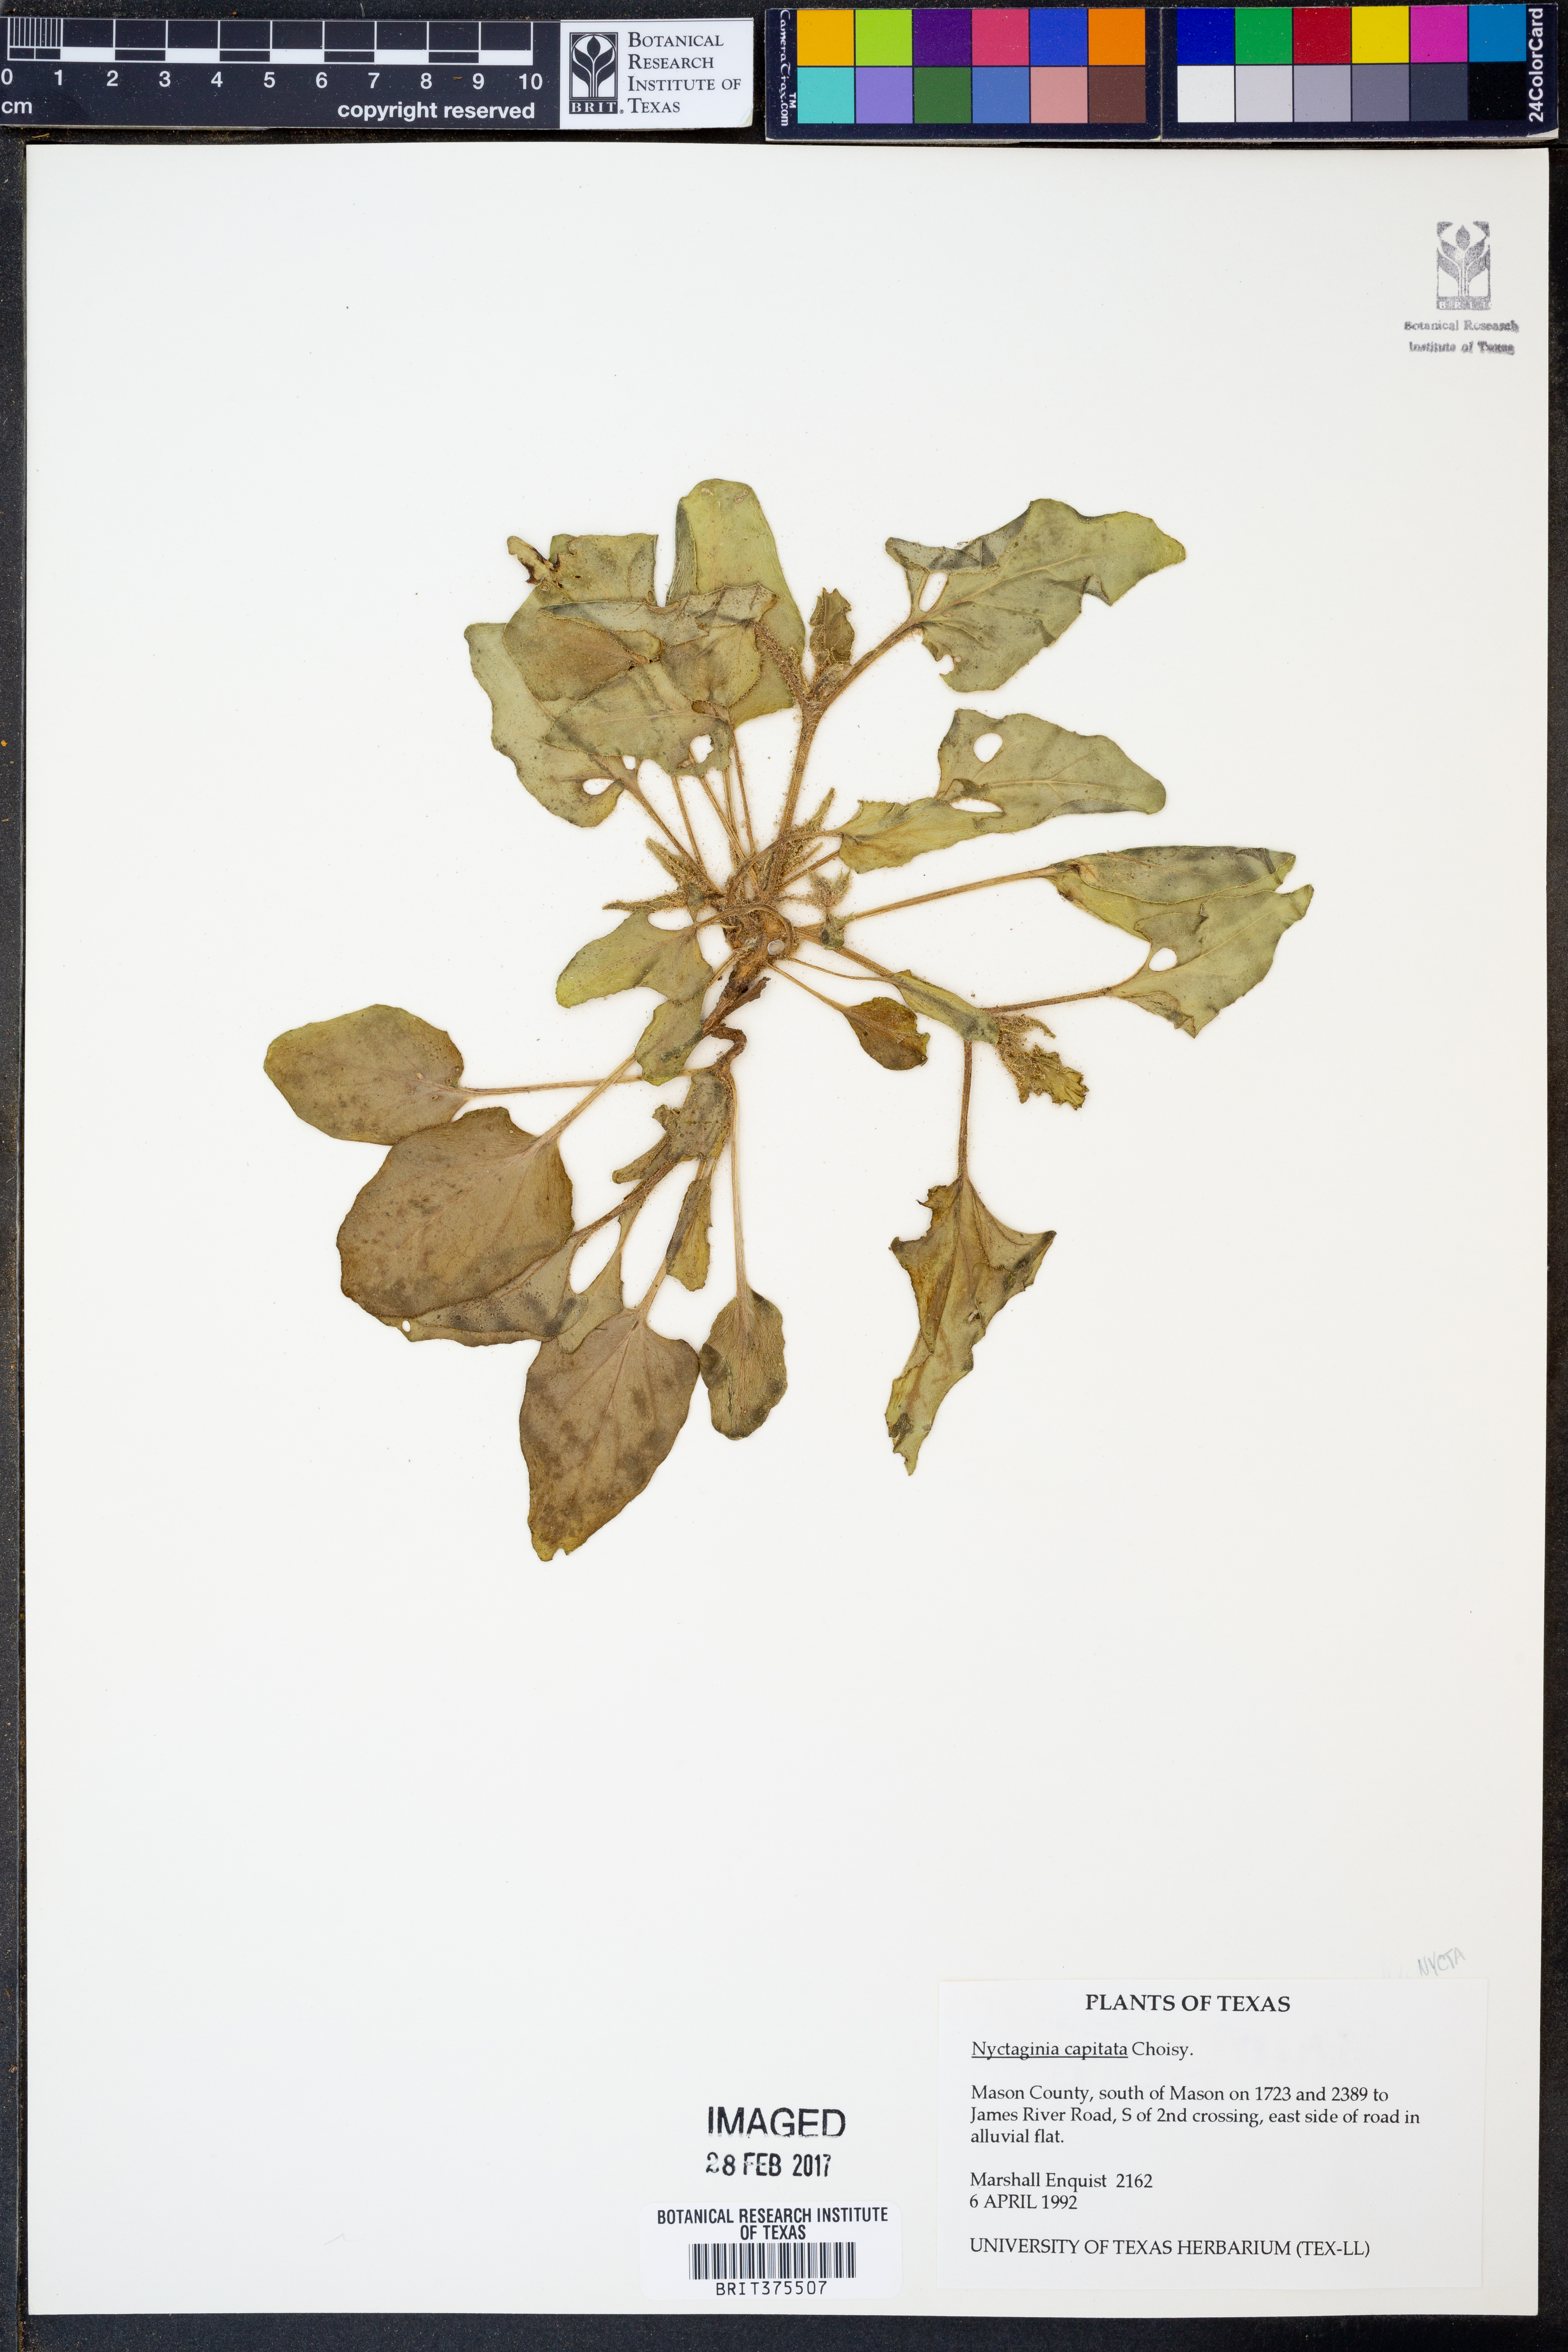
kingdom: Plantae
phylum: Tracheophyta
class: Magnoliopsida
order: Caryophyllales
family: Nyctaginaceae
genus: Nyctaginia
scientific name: Nyctaginia capitata
